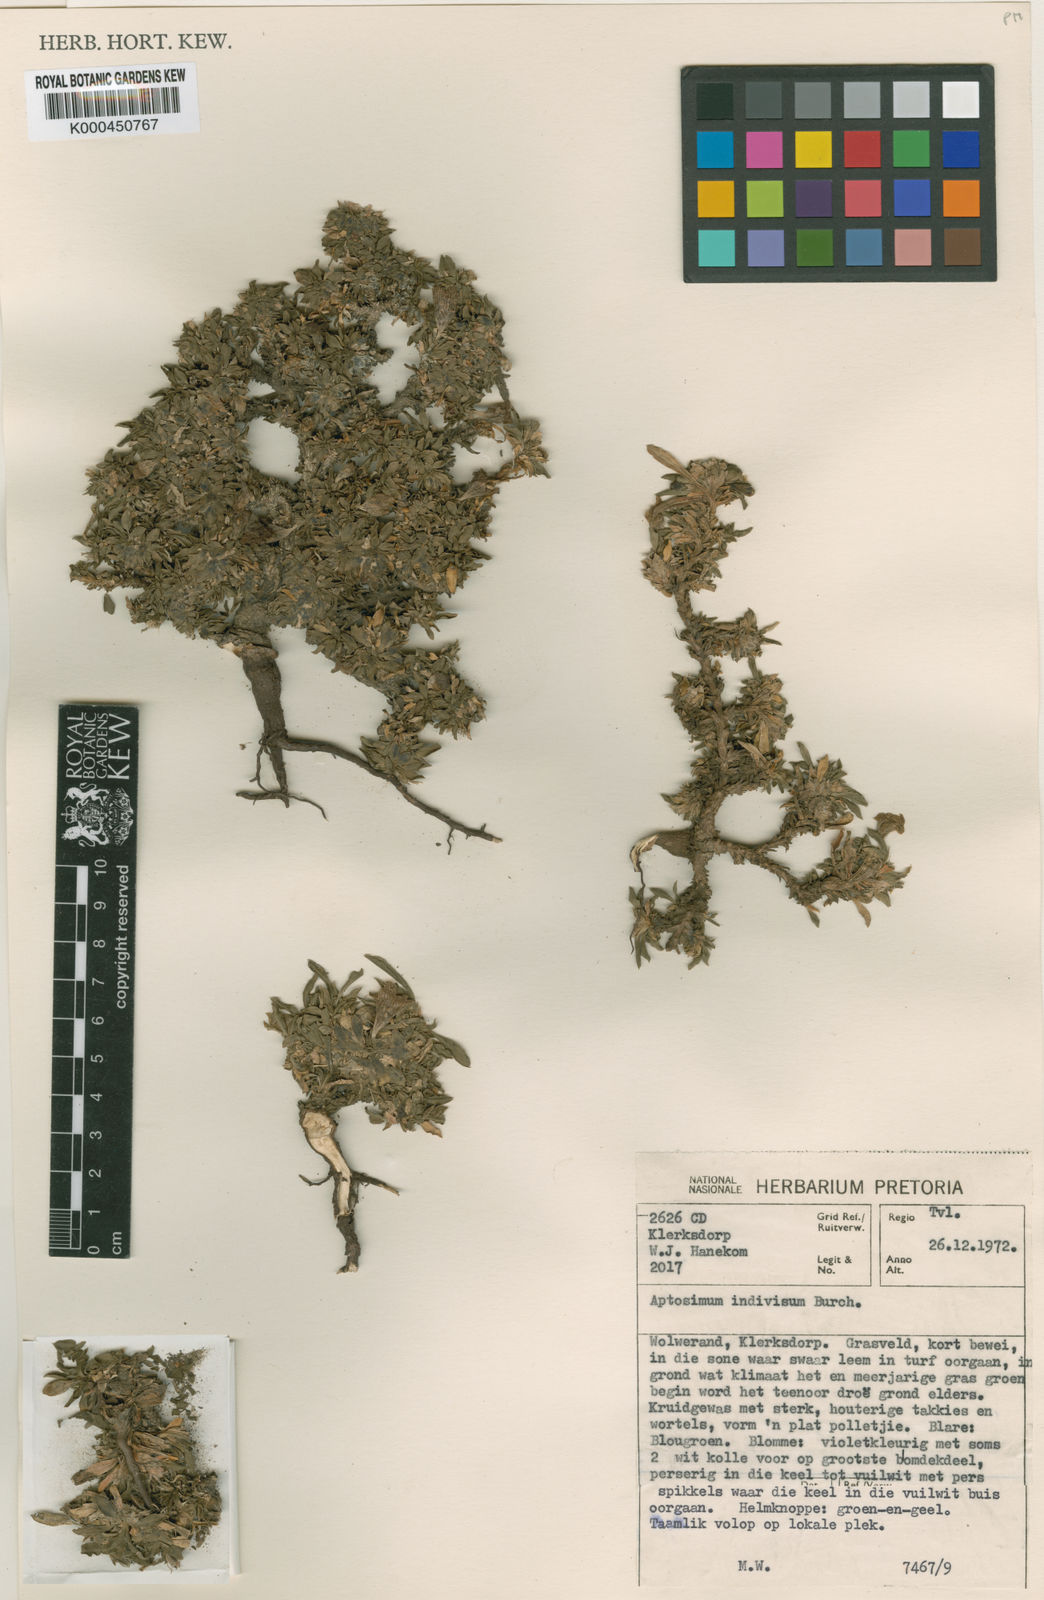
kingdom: Plantae
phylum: Tracheophyta
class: Magnoliopsida
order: Lamiales
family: Scrophulariaceae
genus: Aptosimum
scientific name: Aptosimum indivisum
